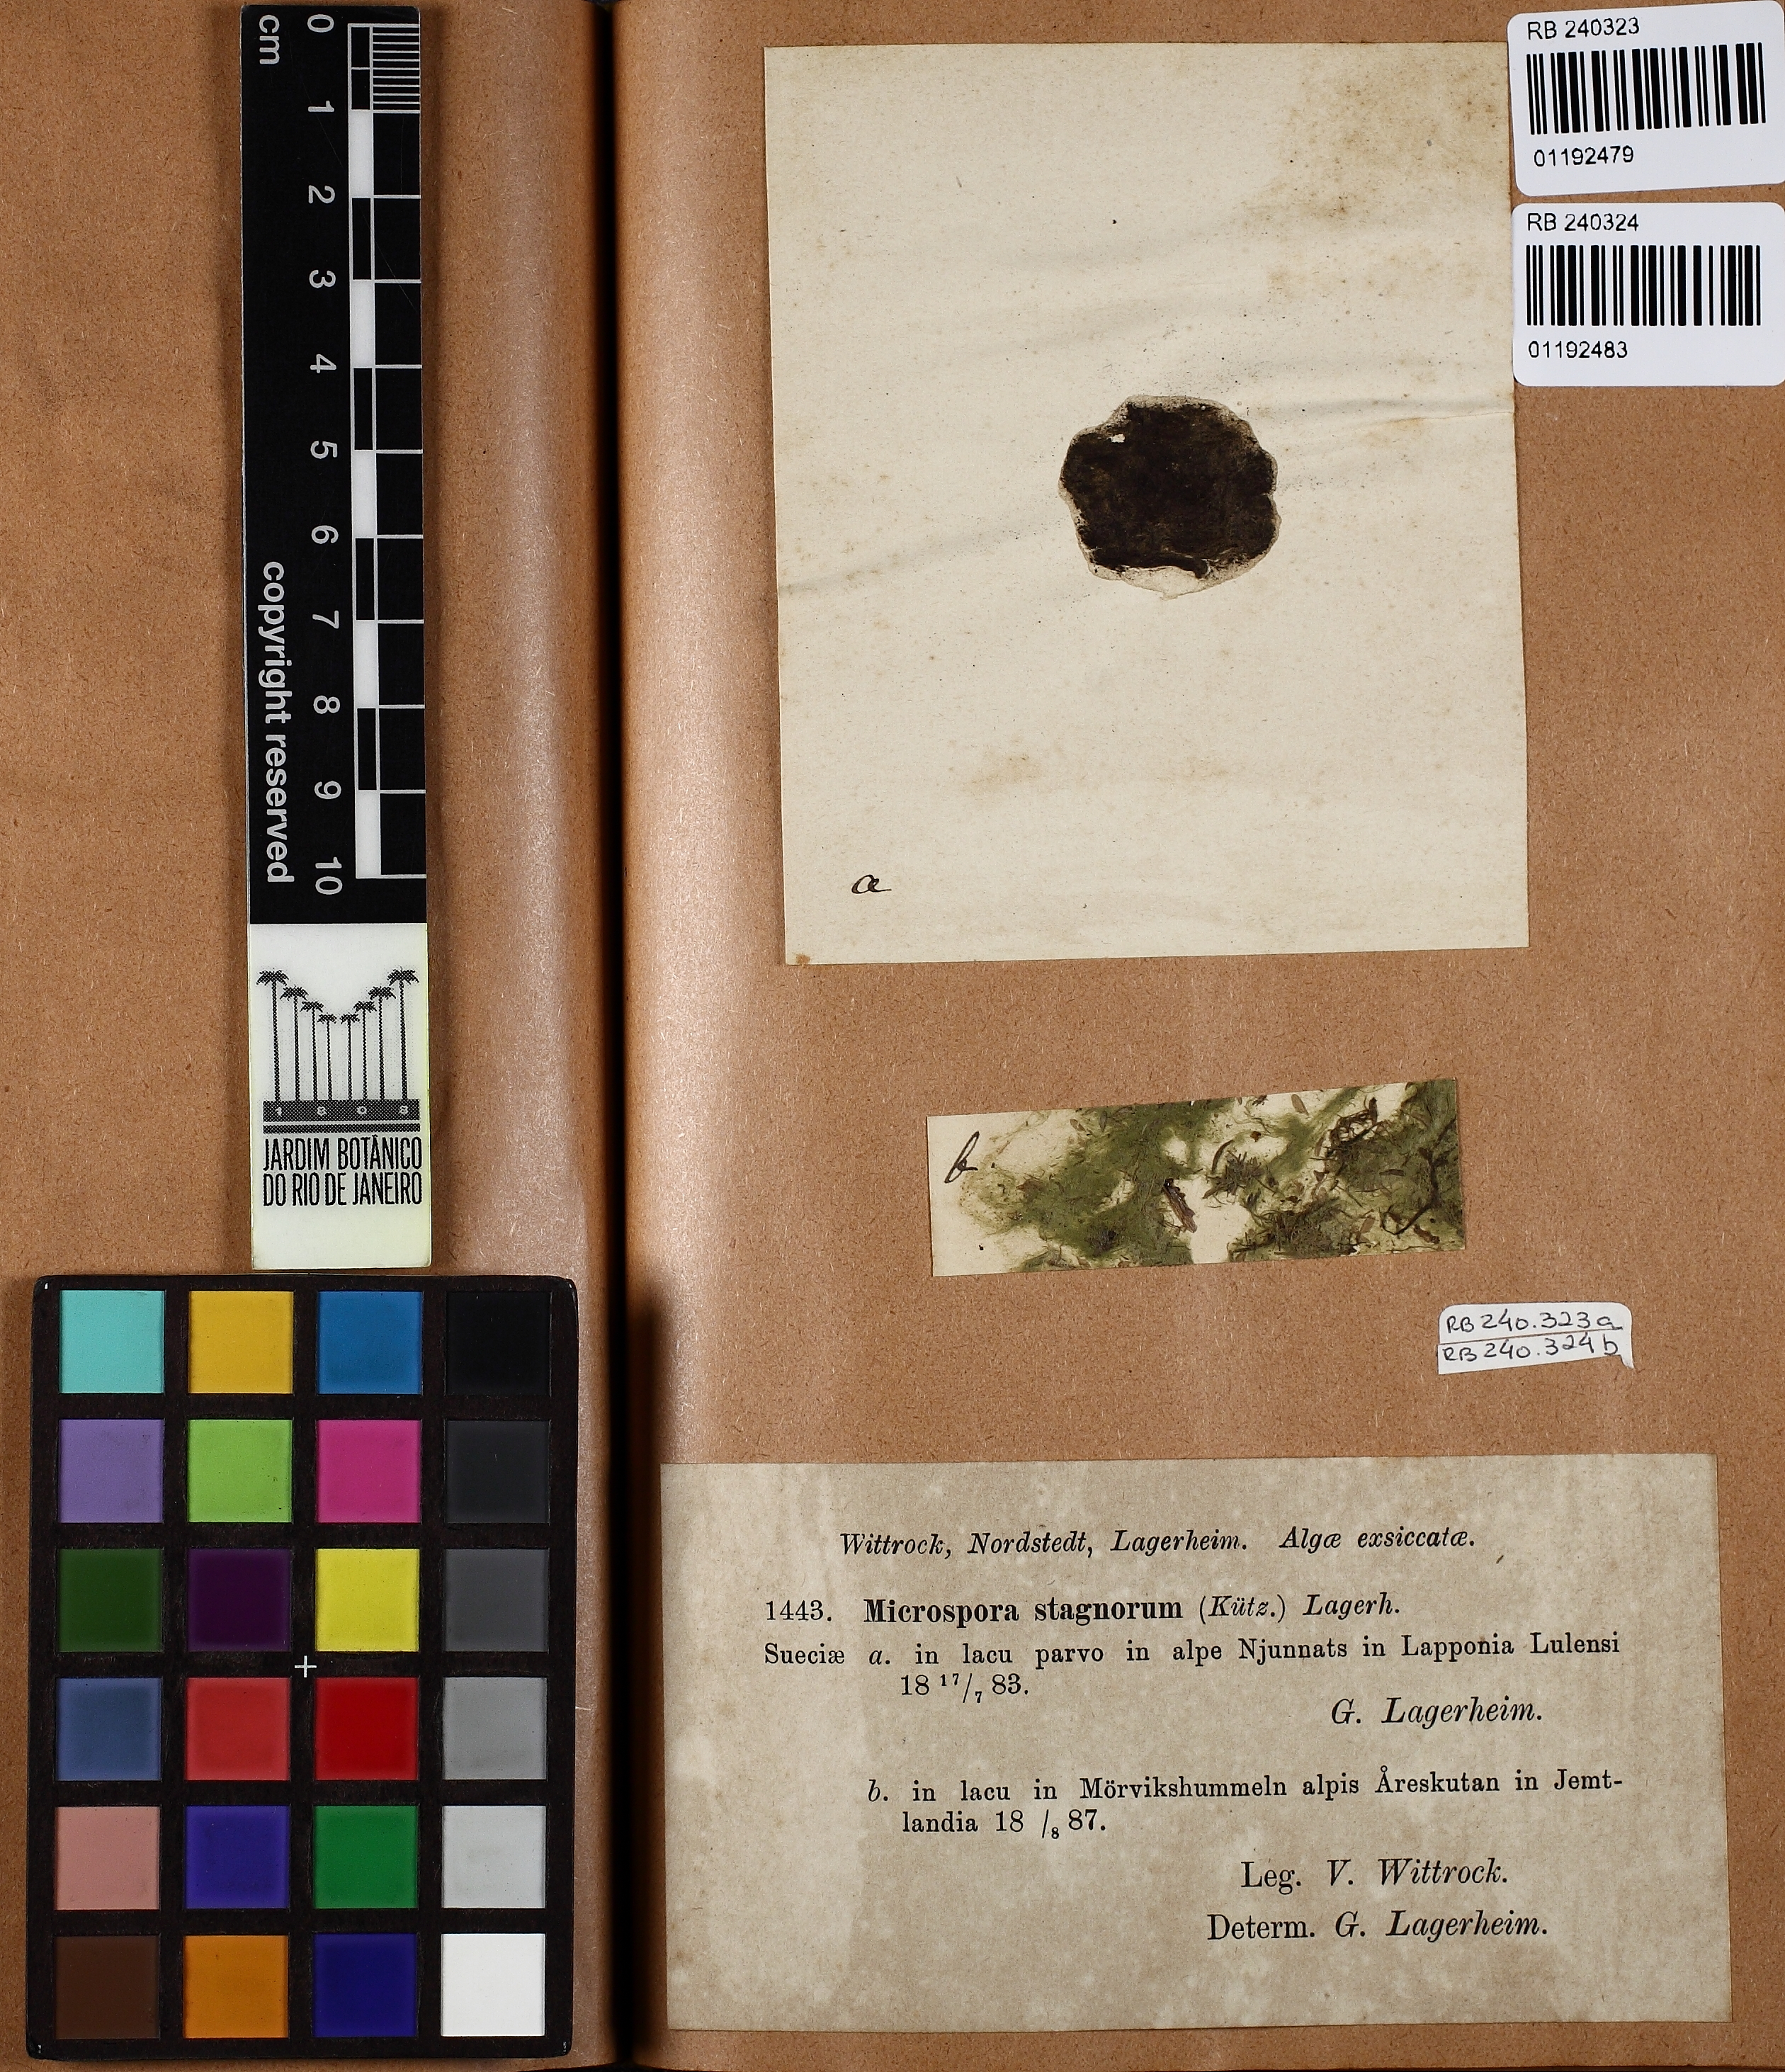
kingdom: Plantae
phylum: Chlorophyta
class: Chlorophyceae
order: Sphaeropleales
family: Microsporaceae
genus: Microspora
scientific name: Microspora stagnorum
